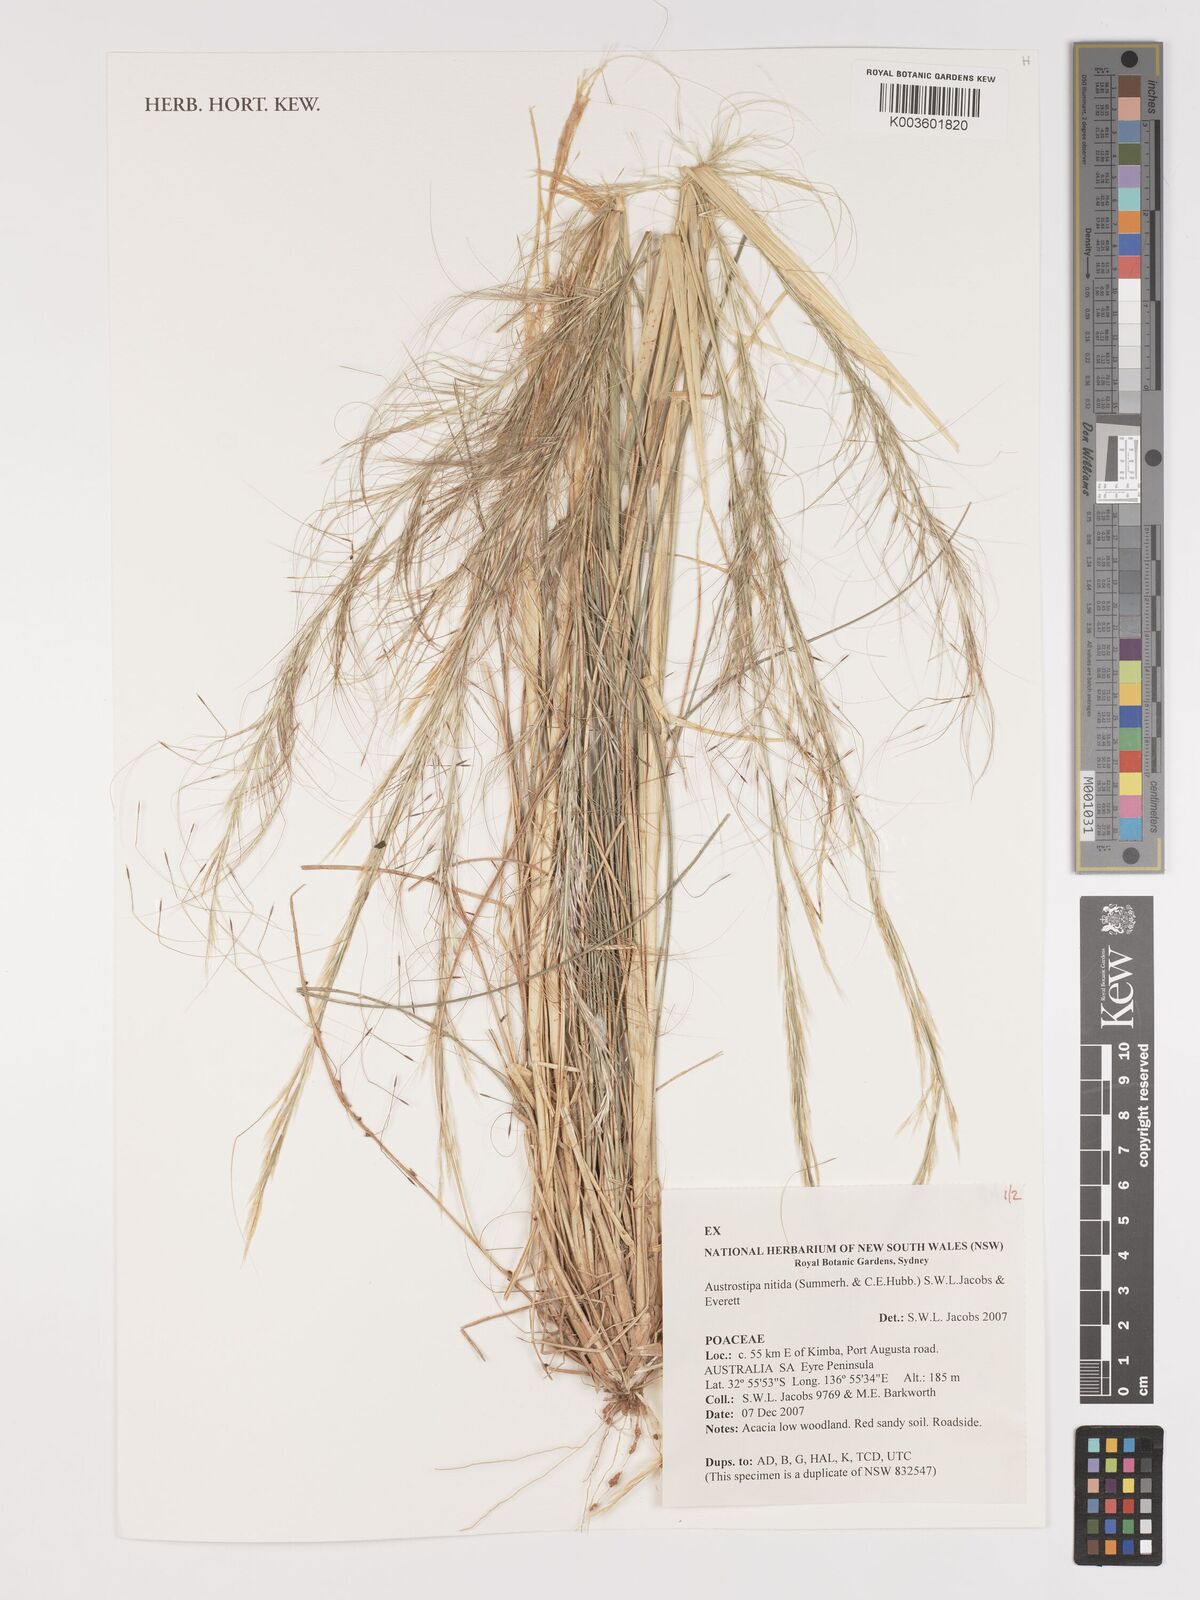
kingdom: Plantae
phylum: Tracheophyta
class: Liliopsida
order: Poales
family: Poaceae
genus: Austrostipa
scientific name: Austrostipa nitida
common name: Balcarra grass
